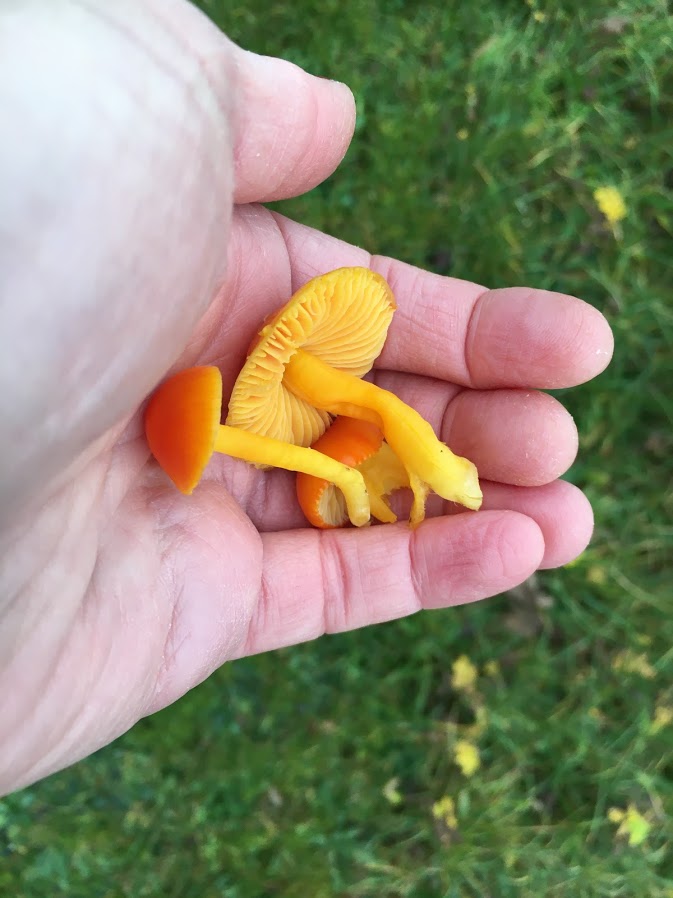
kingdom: Fungi
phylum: Basidiomycota
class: Agaricomycetes
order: Agaricales
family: Hygrophoraceae
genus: Hygrocybe
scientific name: Hygrocybe ceracea
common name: voksgul vokshat
